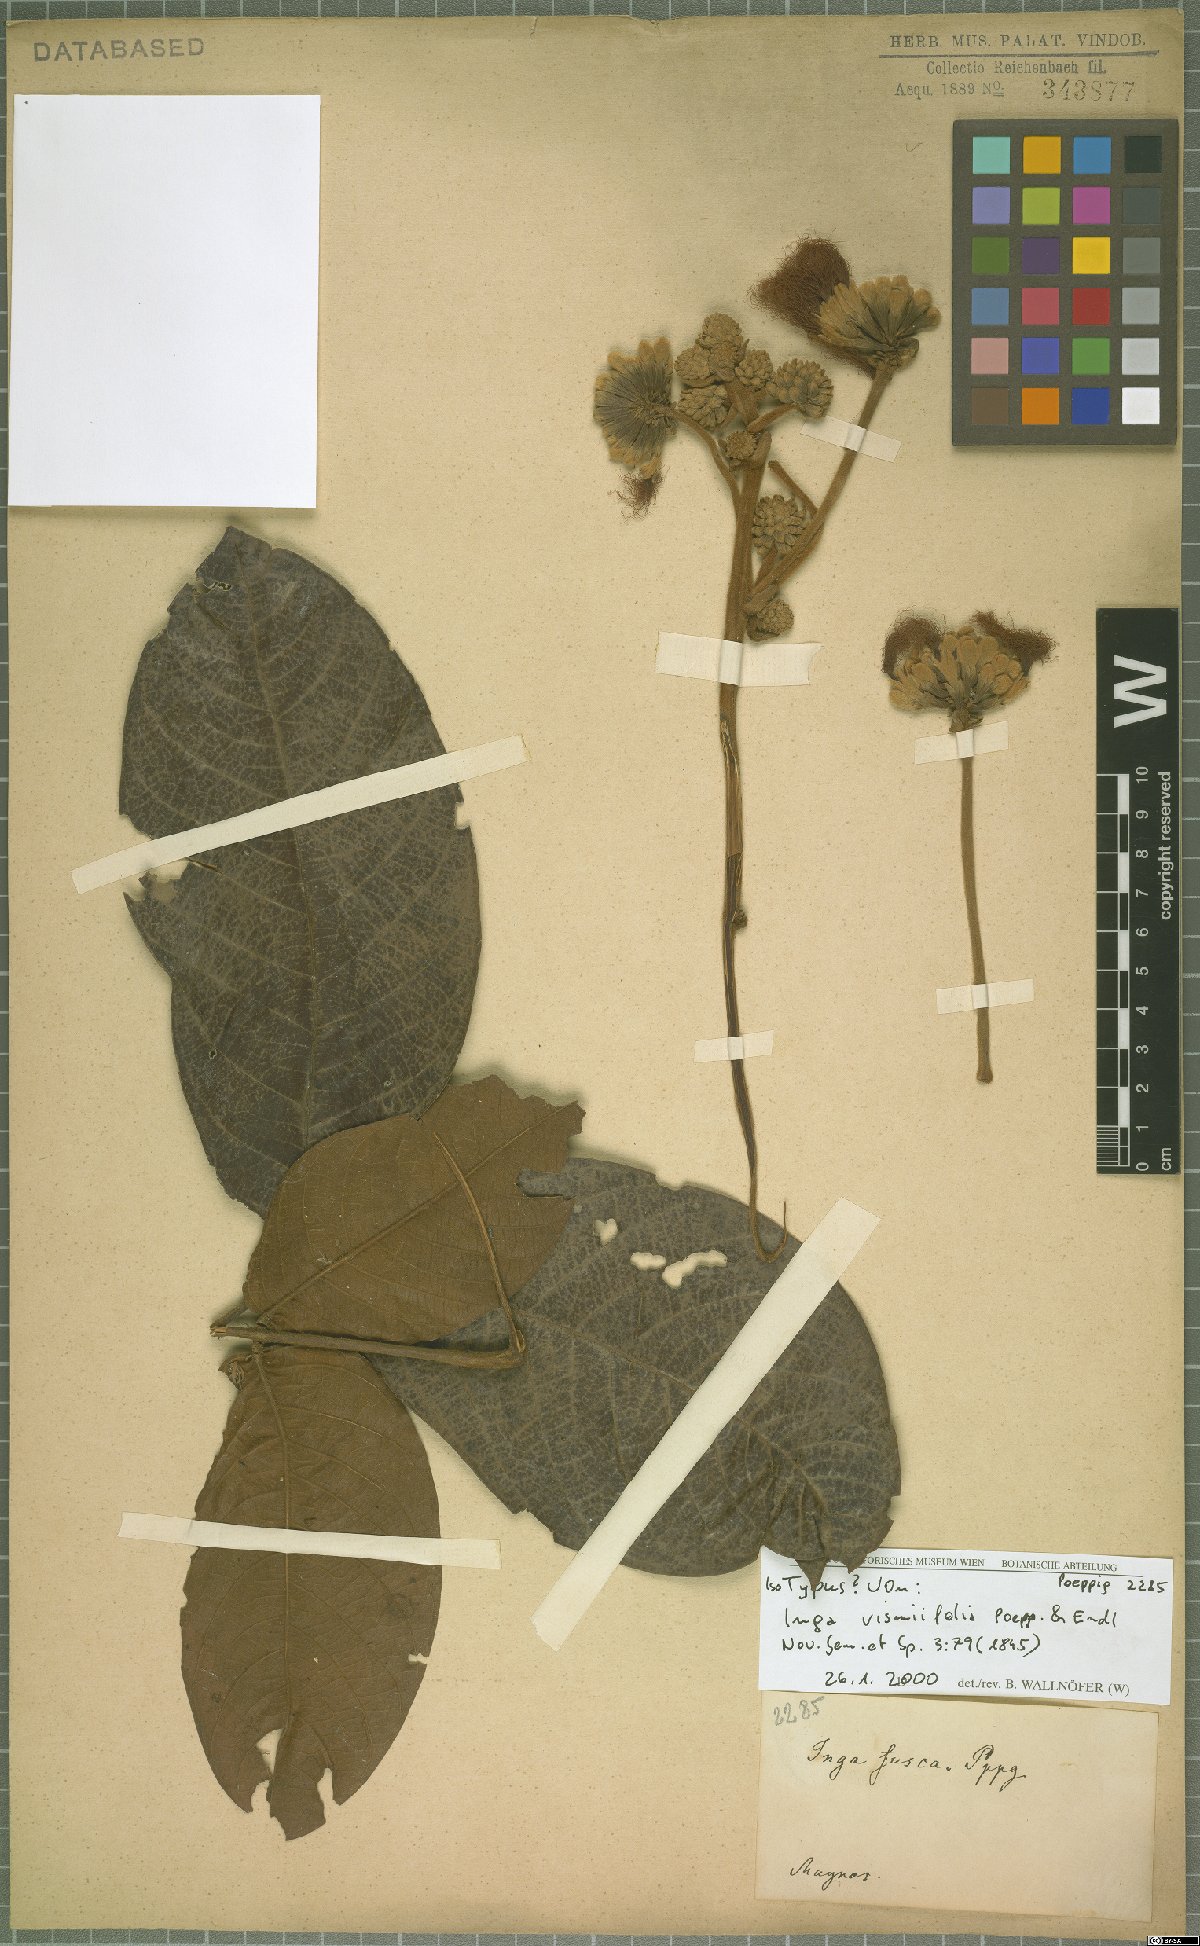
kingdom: Plantae
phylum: Tracheophyta
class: Magnoliopsida
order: Fabales
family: Fabaceae
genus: Inga
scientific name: Inga vismiifolia
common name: Howler monkey inga
